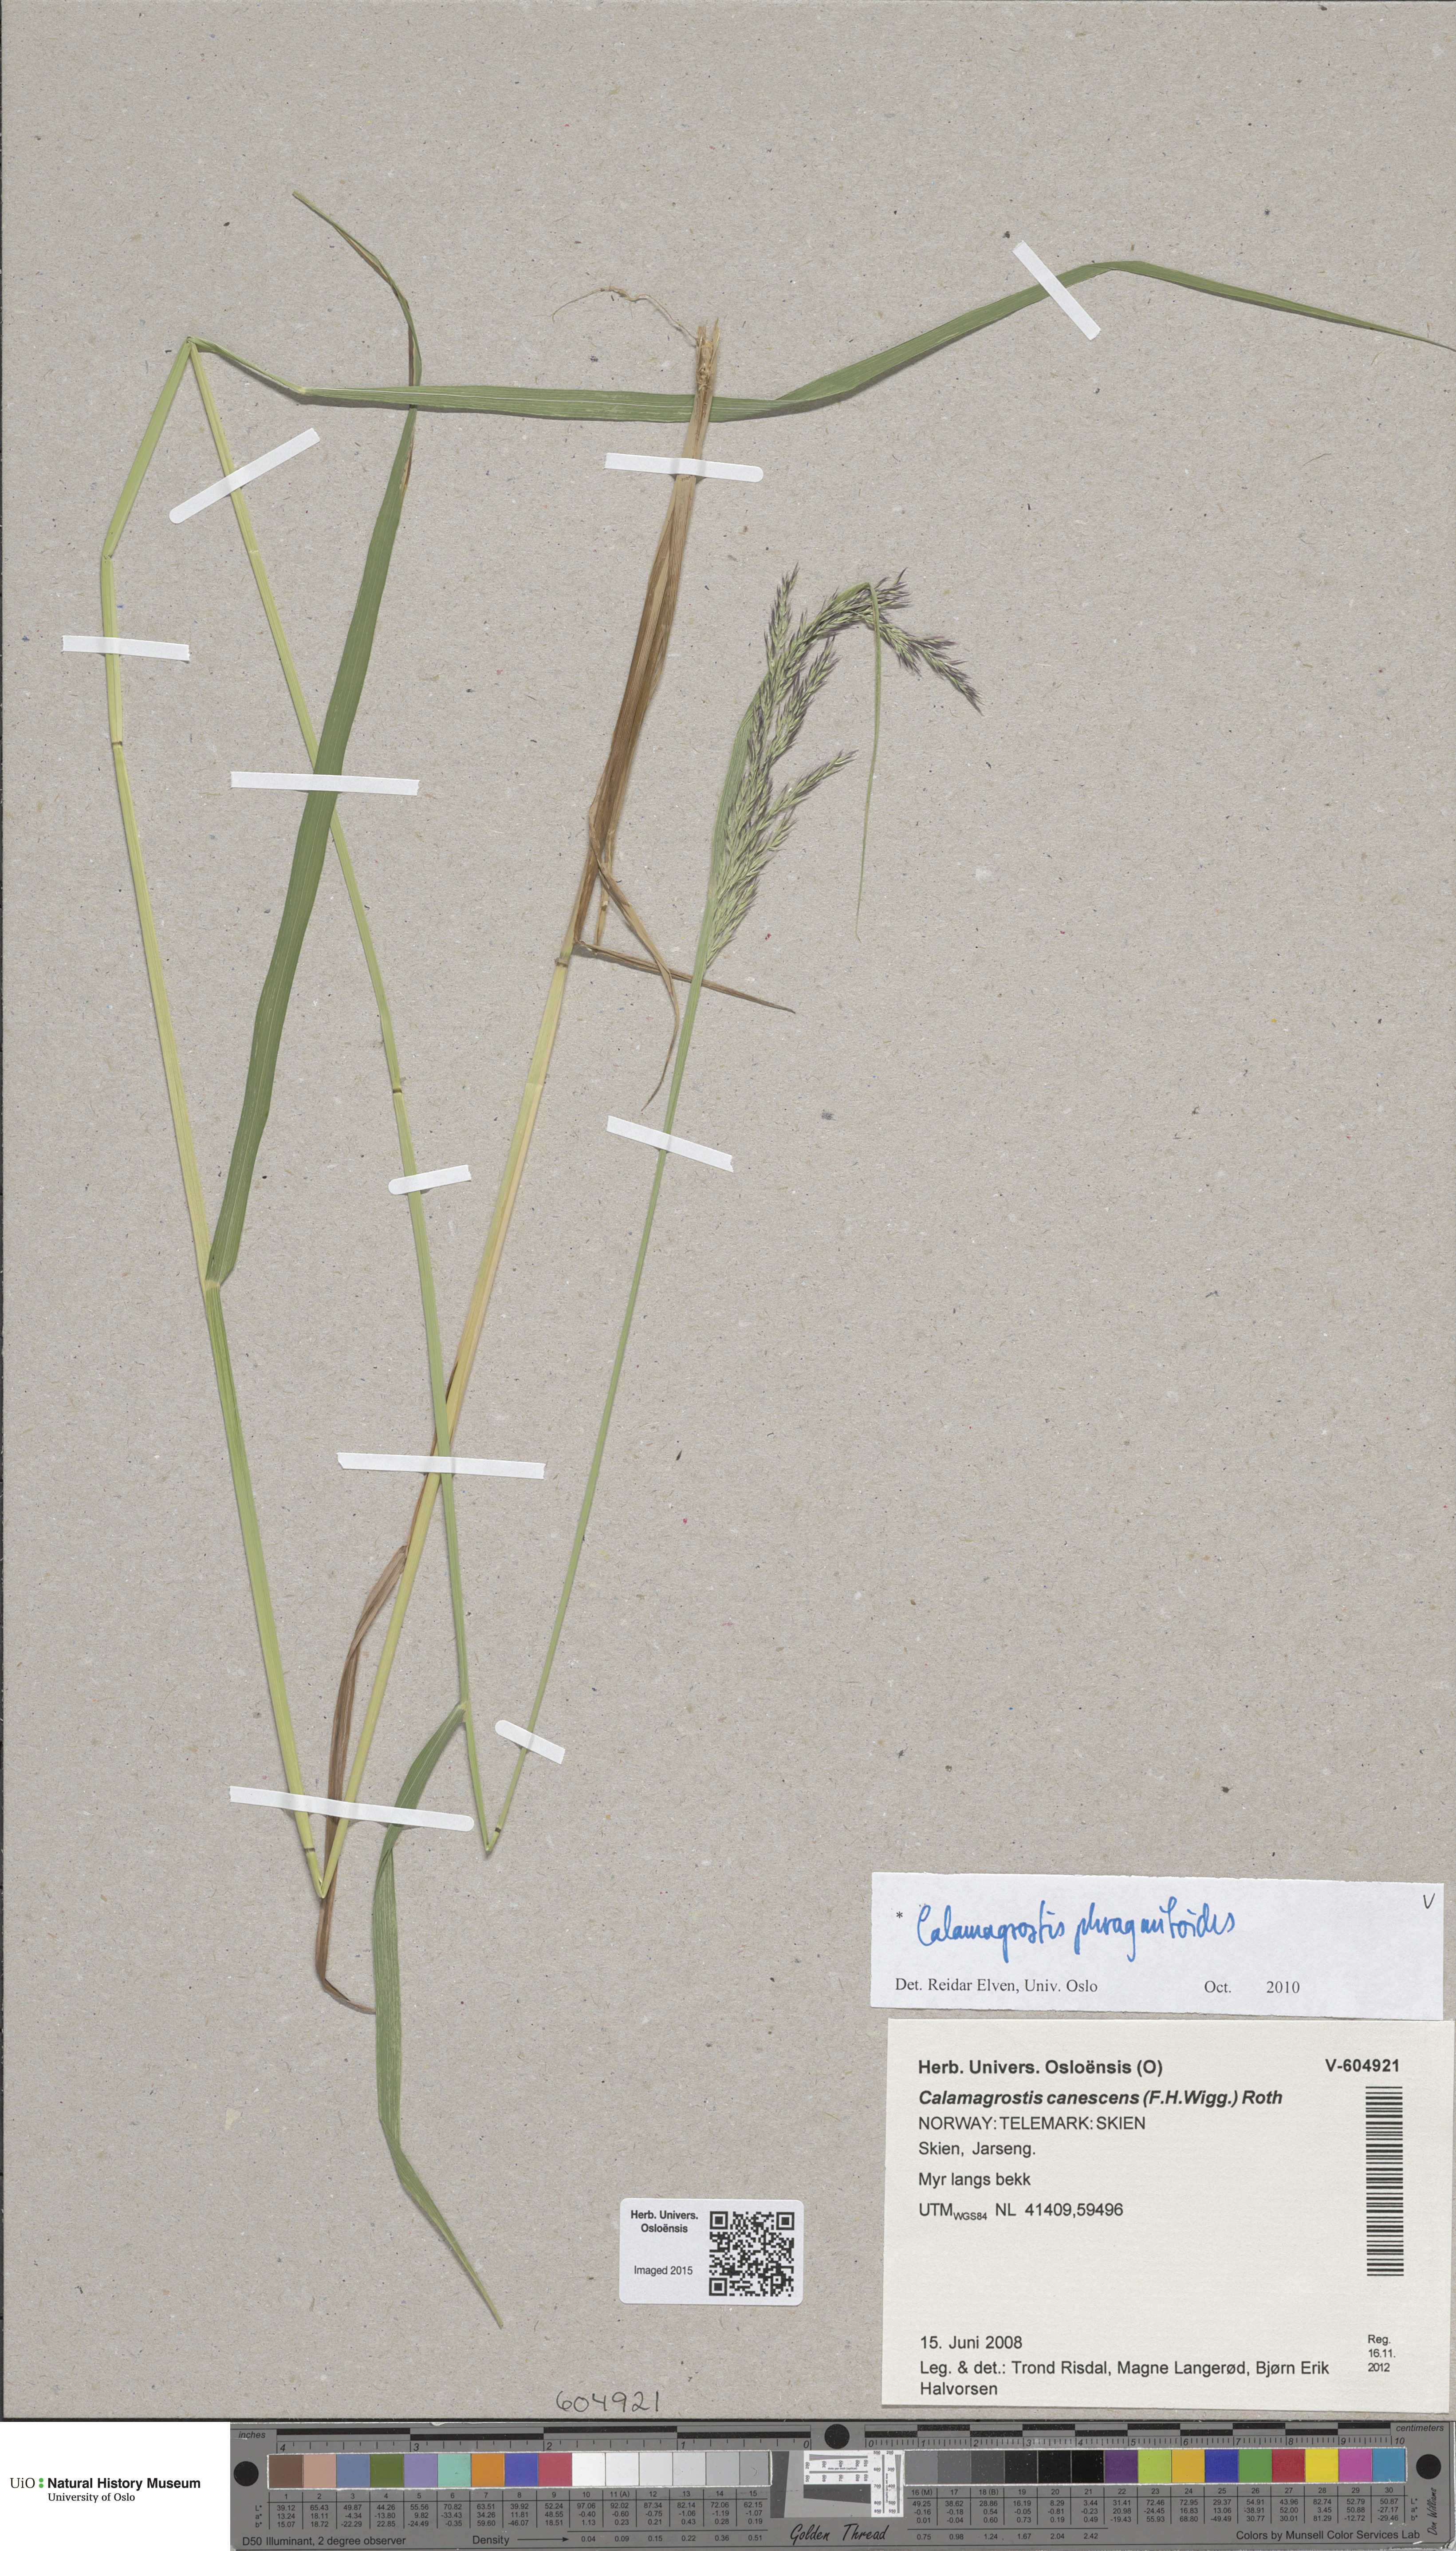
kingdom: Plantae
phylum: Tracheophyta
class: Liliopsida
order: Poales
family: Poaceae
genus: Calamagrostis
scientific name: Calamagrostis purpurea
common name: Scandinavian small-reed
